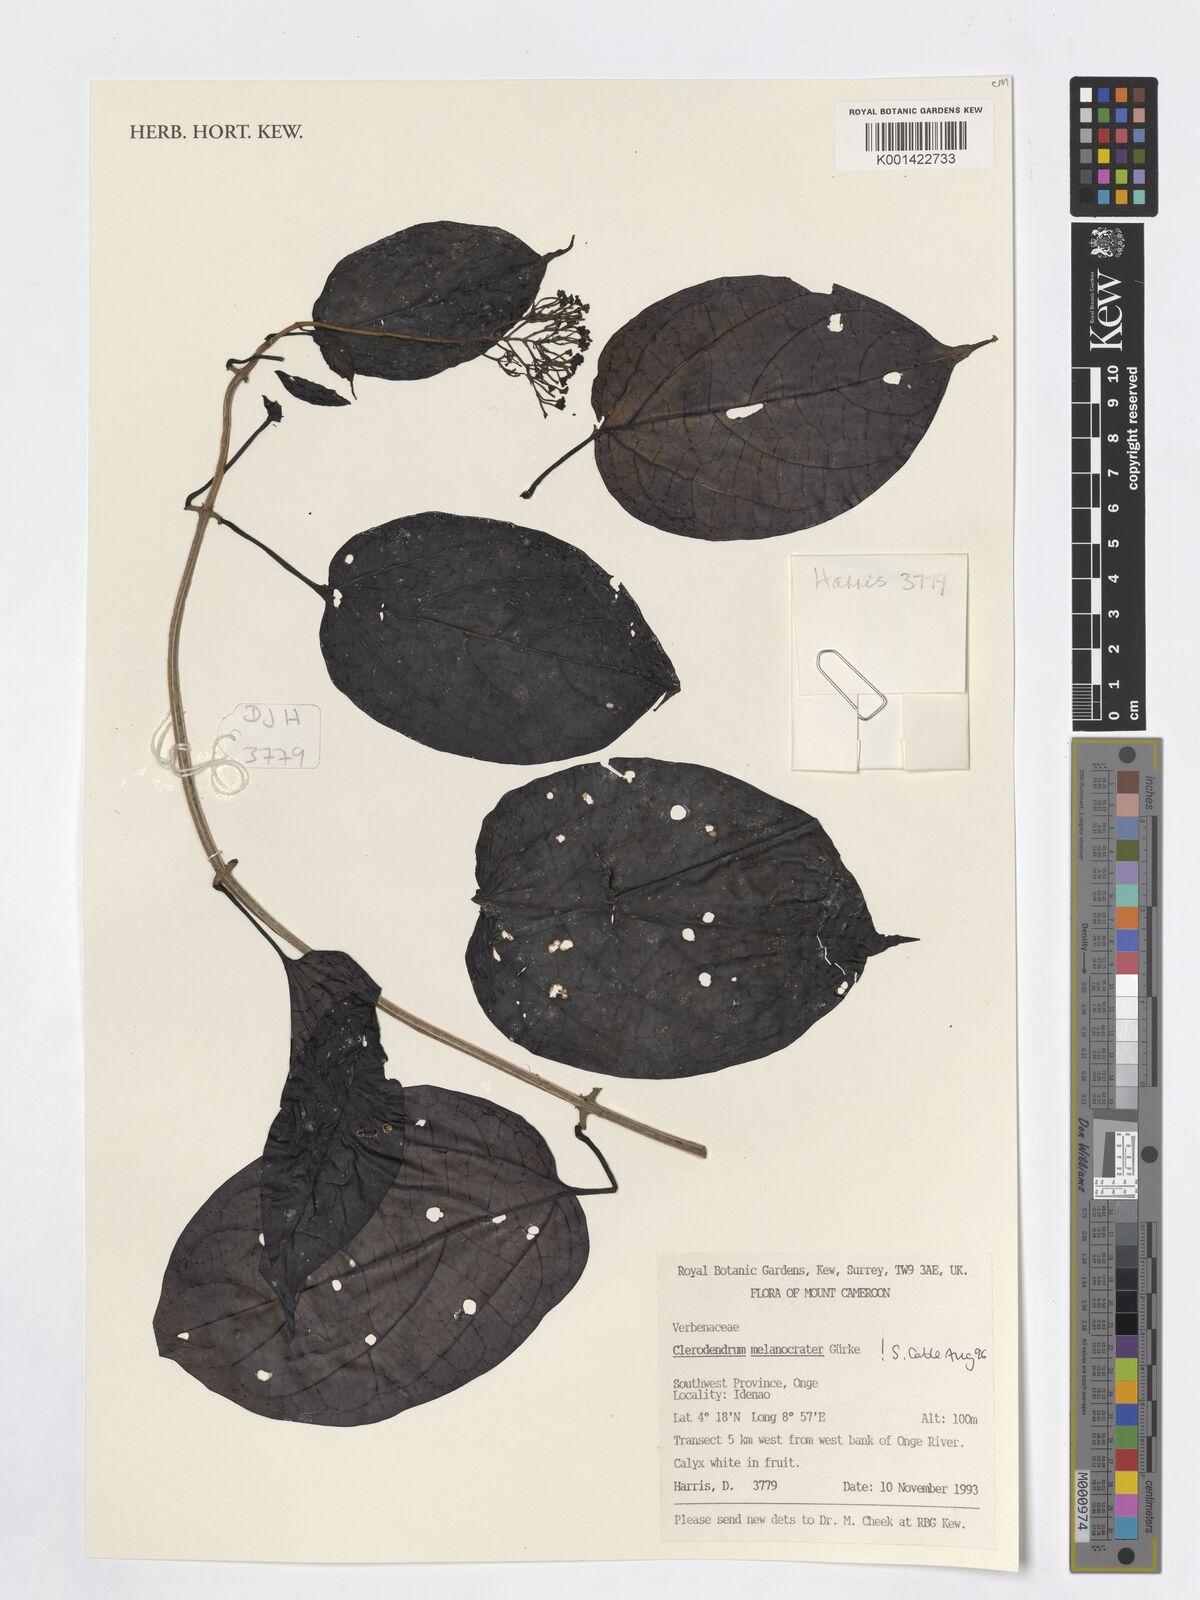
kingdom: Plantae
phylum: Tracheophyta
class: Magnoliopsida
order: Lamiales
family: Lamiaceae
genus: Clerodendrum
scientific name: Clerodendrum melanocrater
